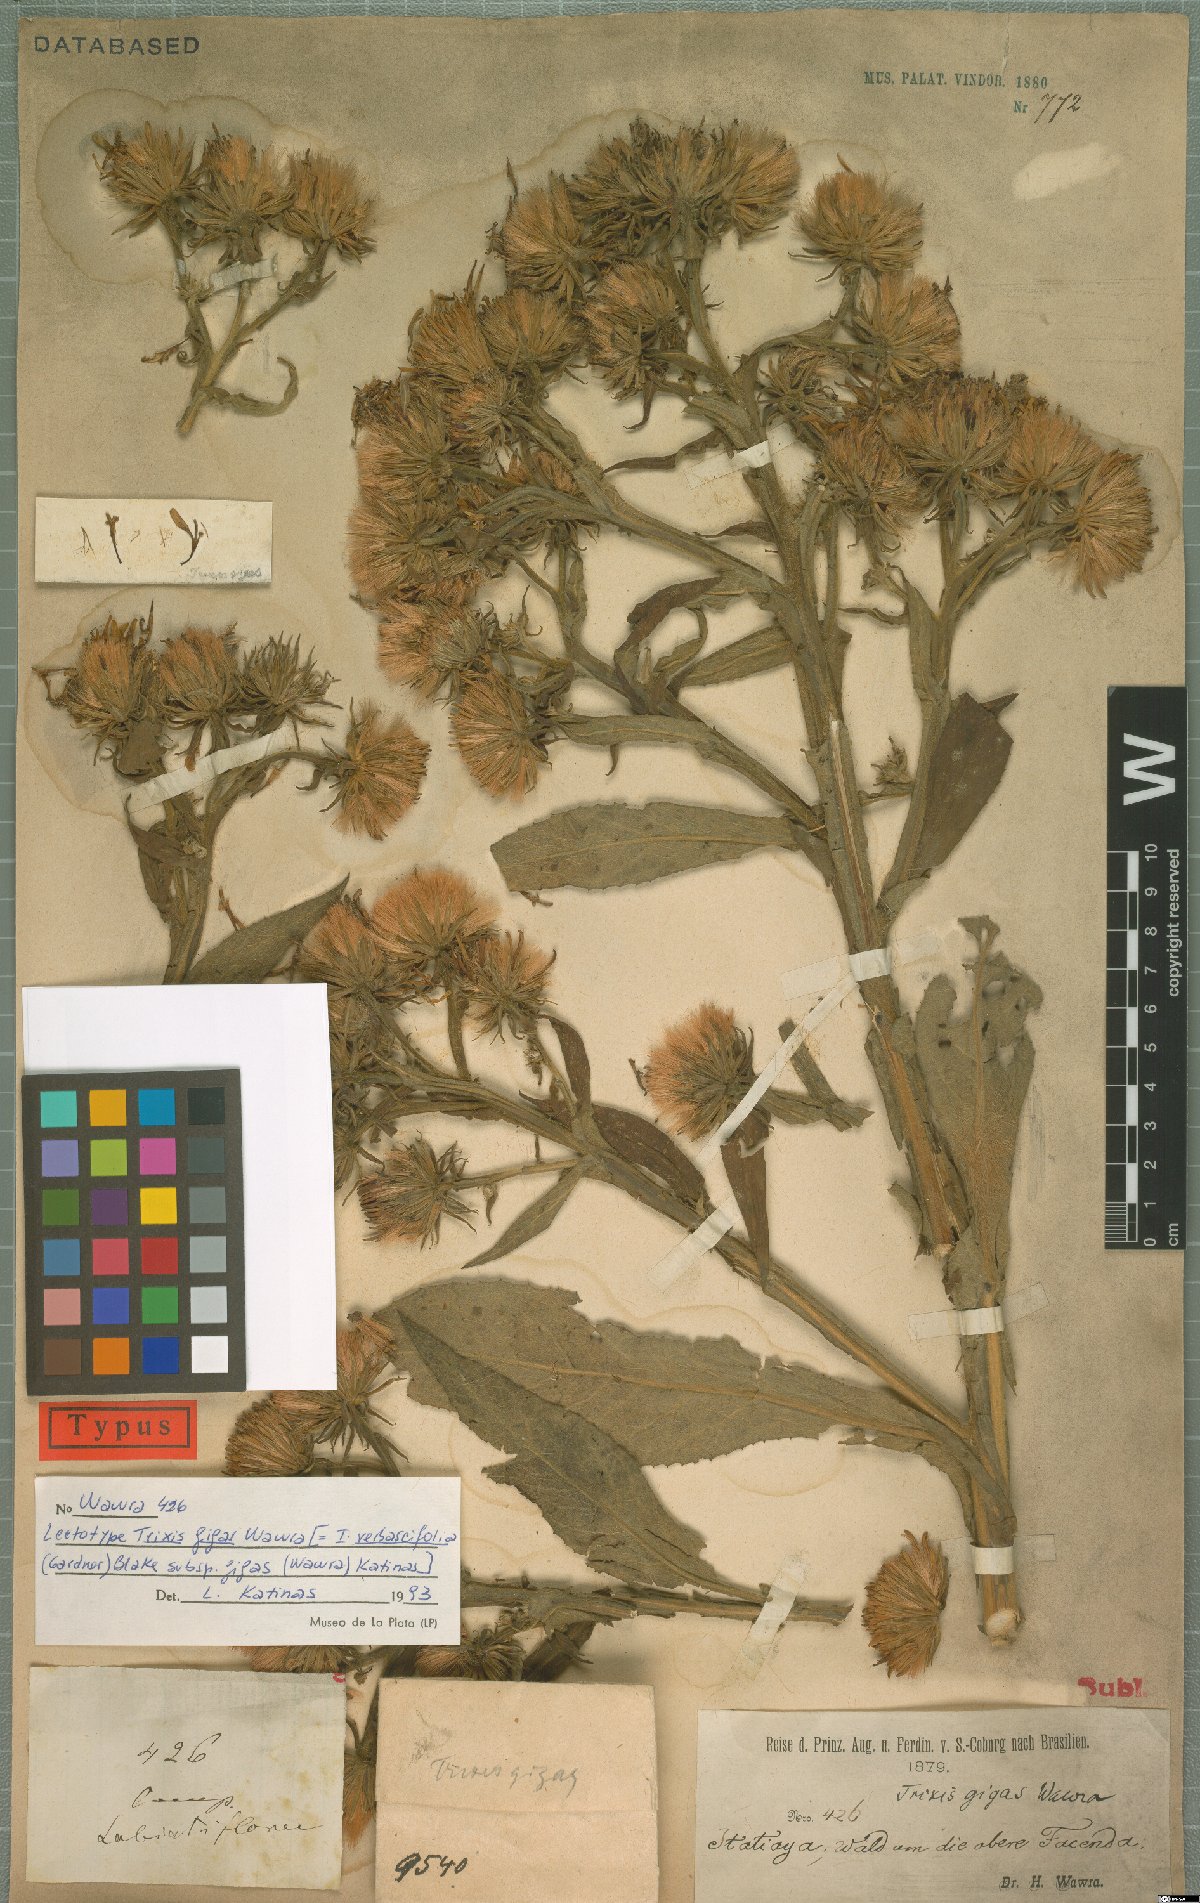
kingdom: Plantae
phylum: Tracheophyta
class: Magnoliopsida
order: Asterales
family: Asteraceae
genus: Trixis
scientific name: Trixis verbascifolia
